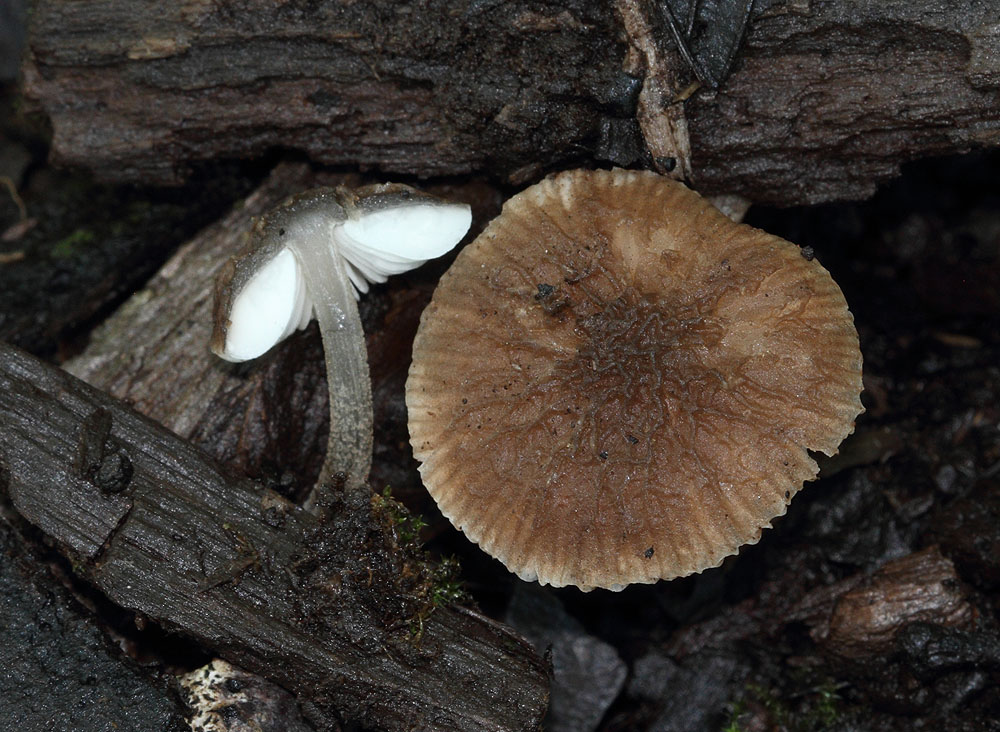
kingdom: Fungi
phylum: Basidiomycota
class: Agaricomycetes
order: Agaricales
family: Pluteaceae
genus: Pluteus
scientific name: Pluteus
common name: gråstokket skærmhat
